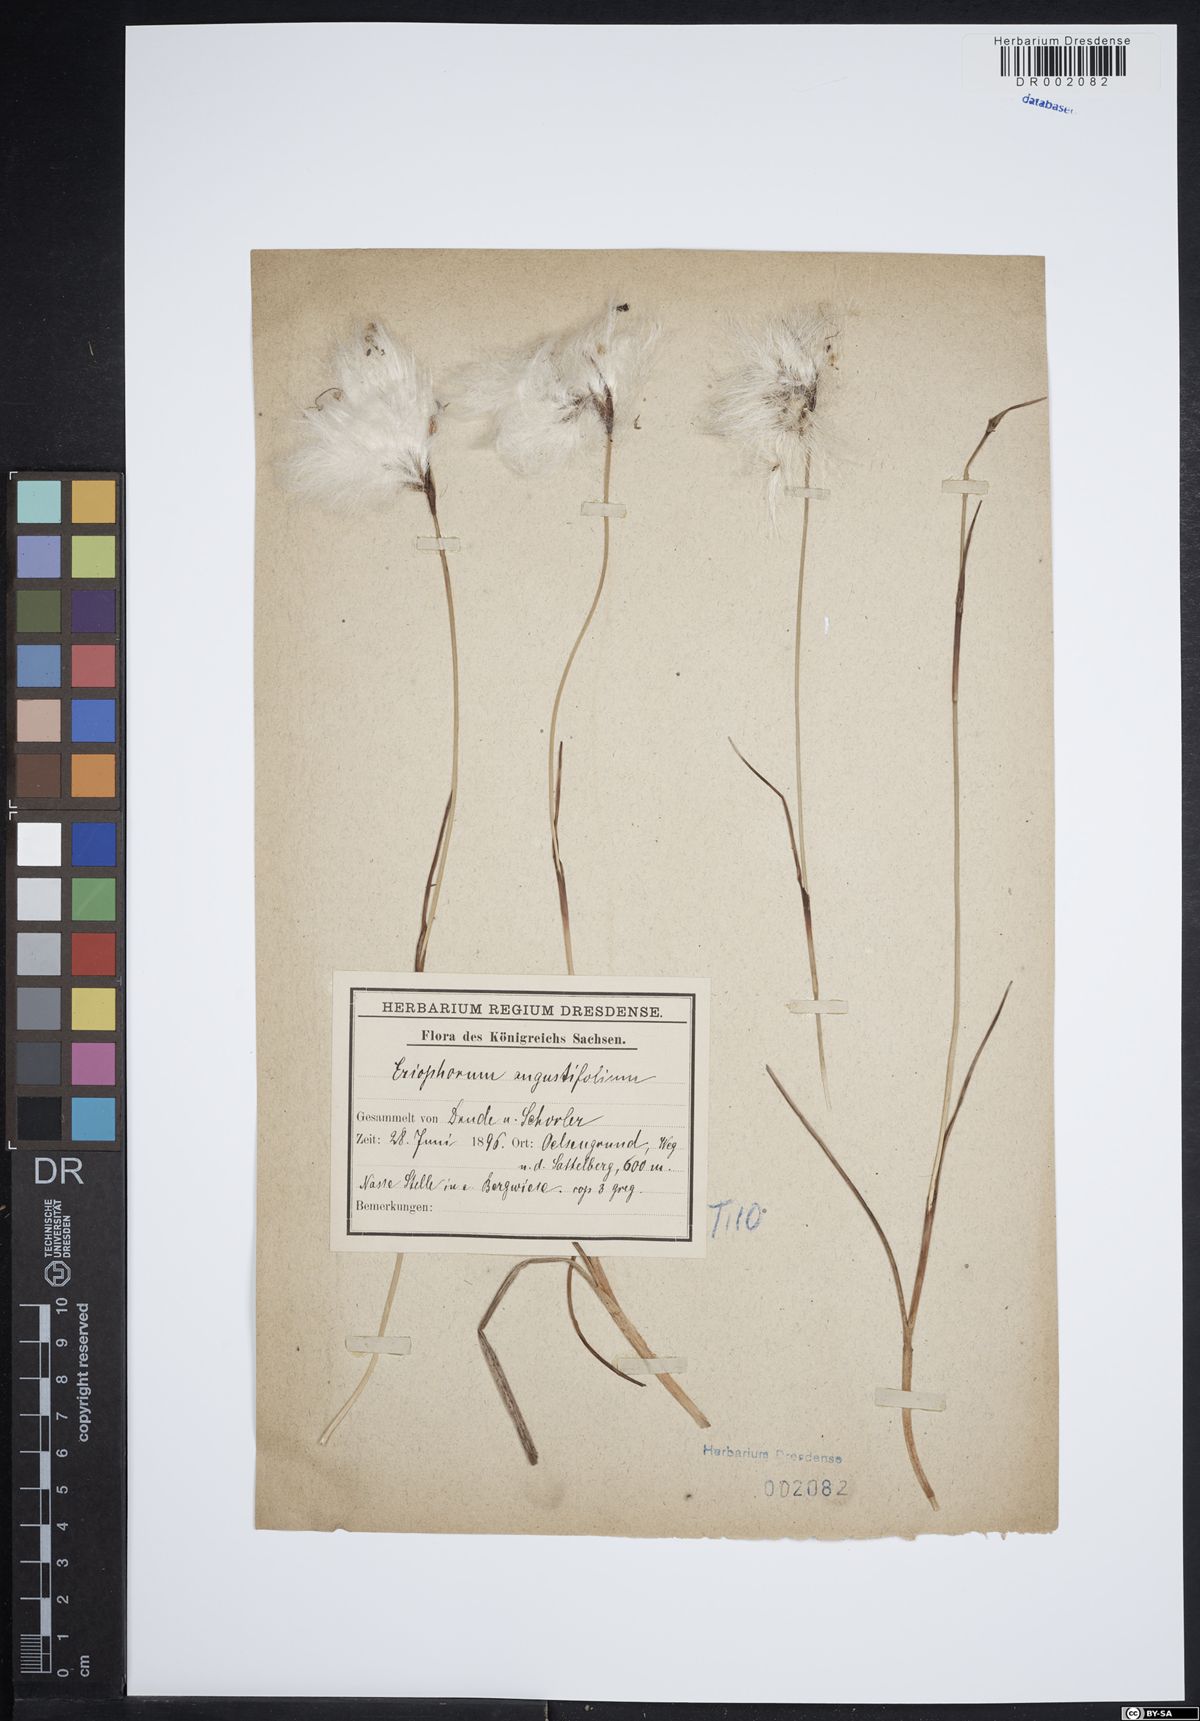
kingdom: Plantae
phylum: Tracheophyta
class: Liliopsida
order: Poales
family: Cyperaceae
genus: Eriophorum
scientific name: Eriophorum angustifolium
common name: Common cottongrass
